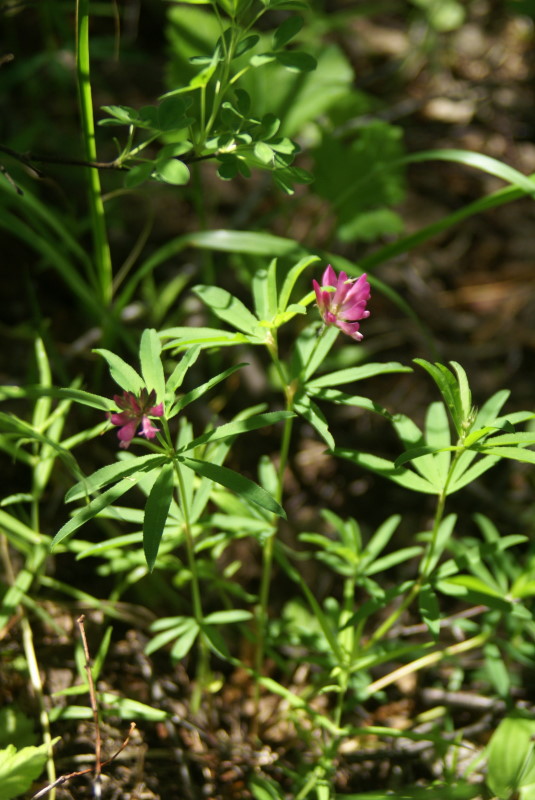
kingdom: Plantae
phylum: Tracheophyta
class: Magnoliopsida
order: Fabales
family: Fabaceae
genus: Trifolium
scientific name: Trifolium lupinaster
